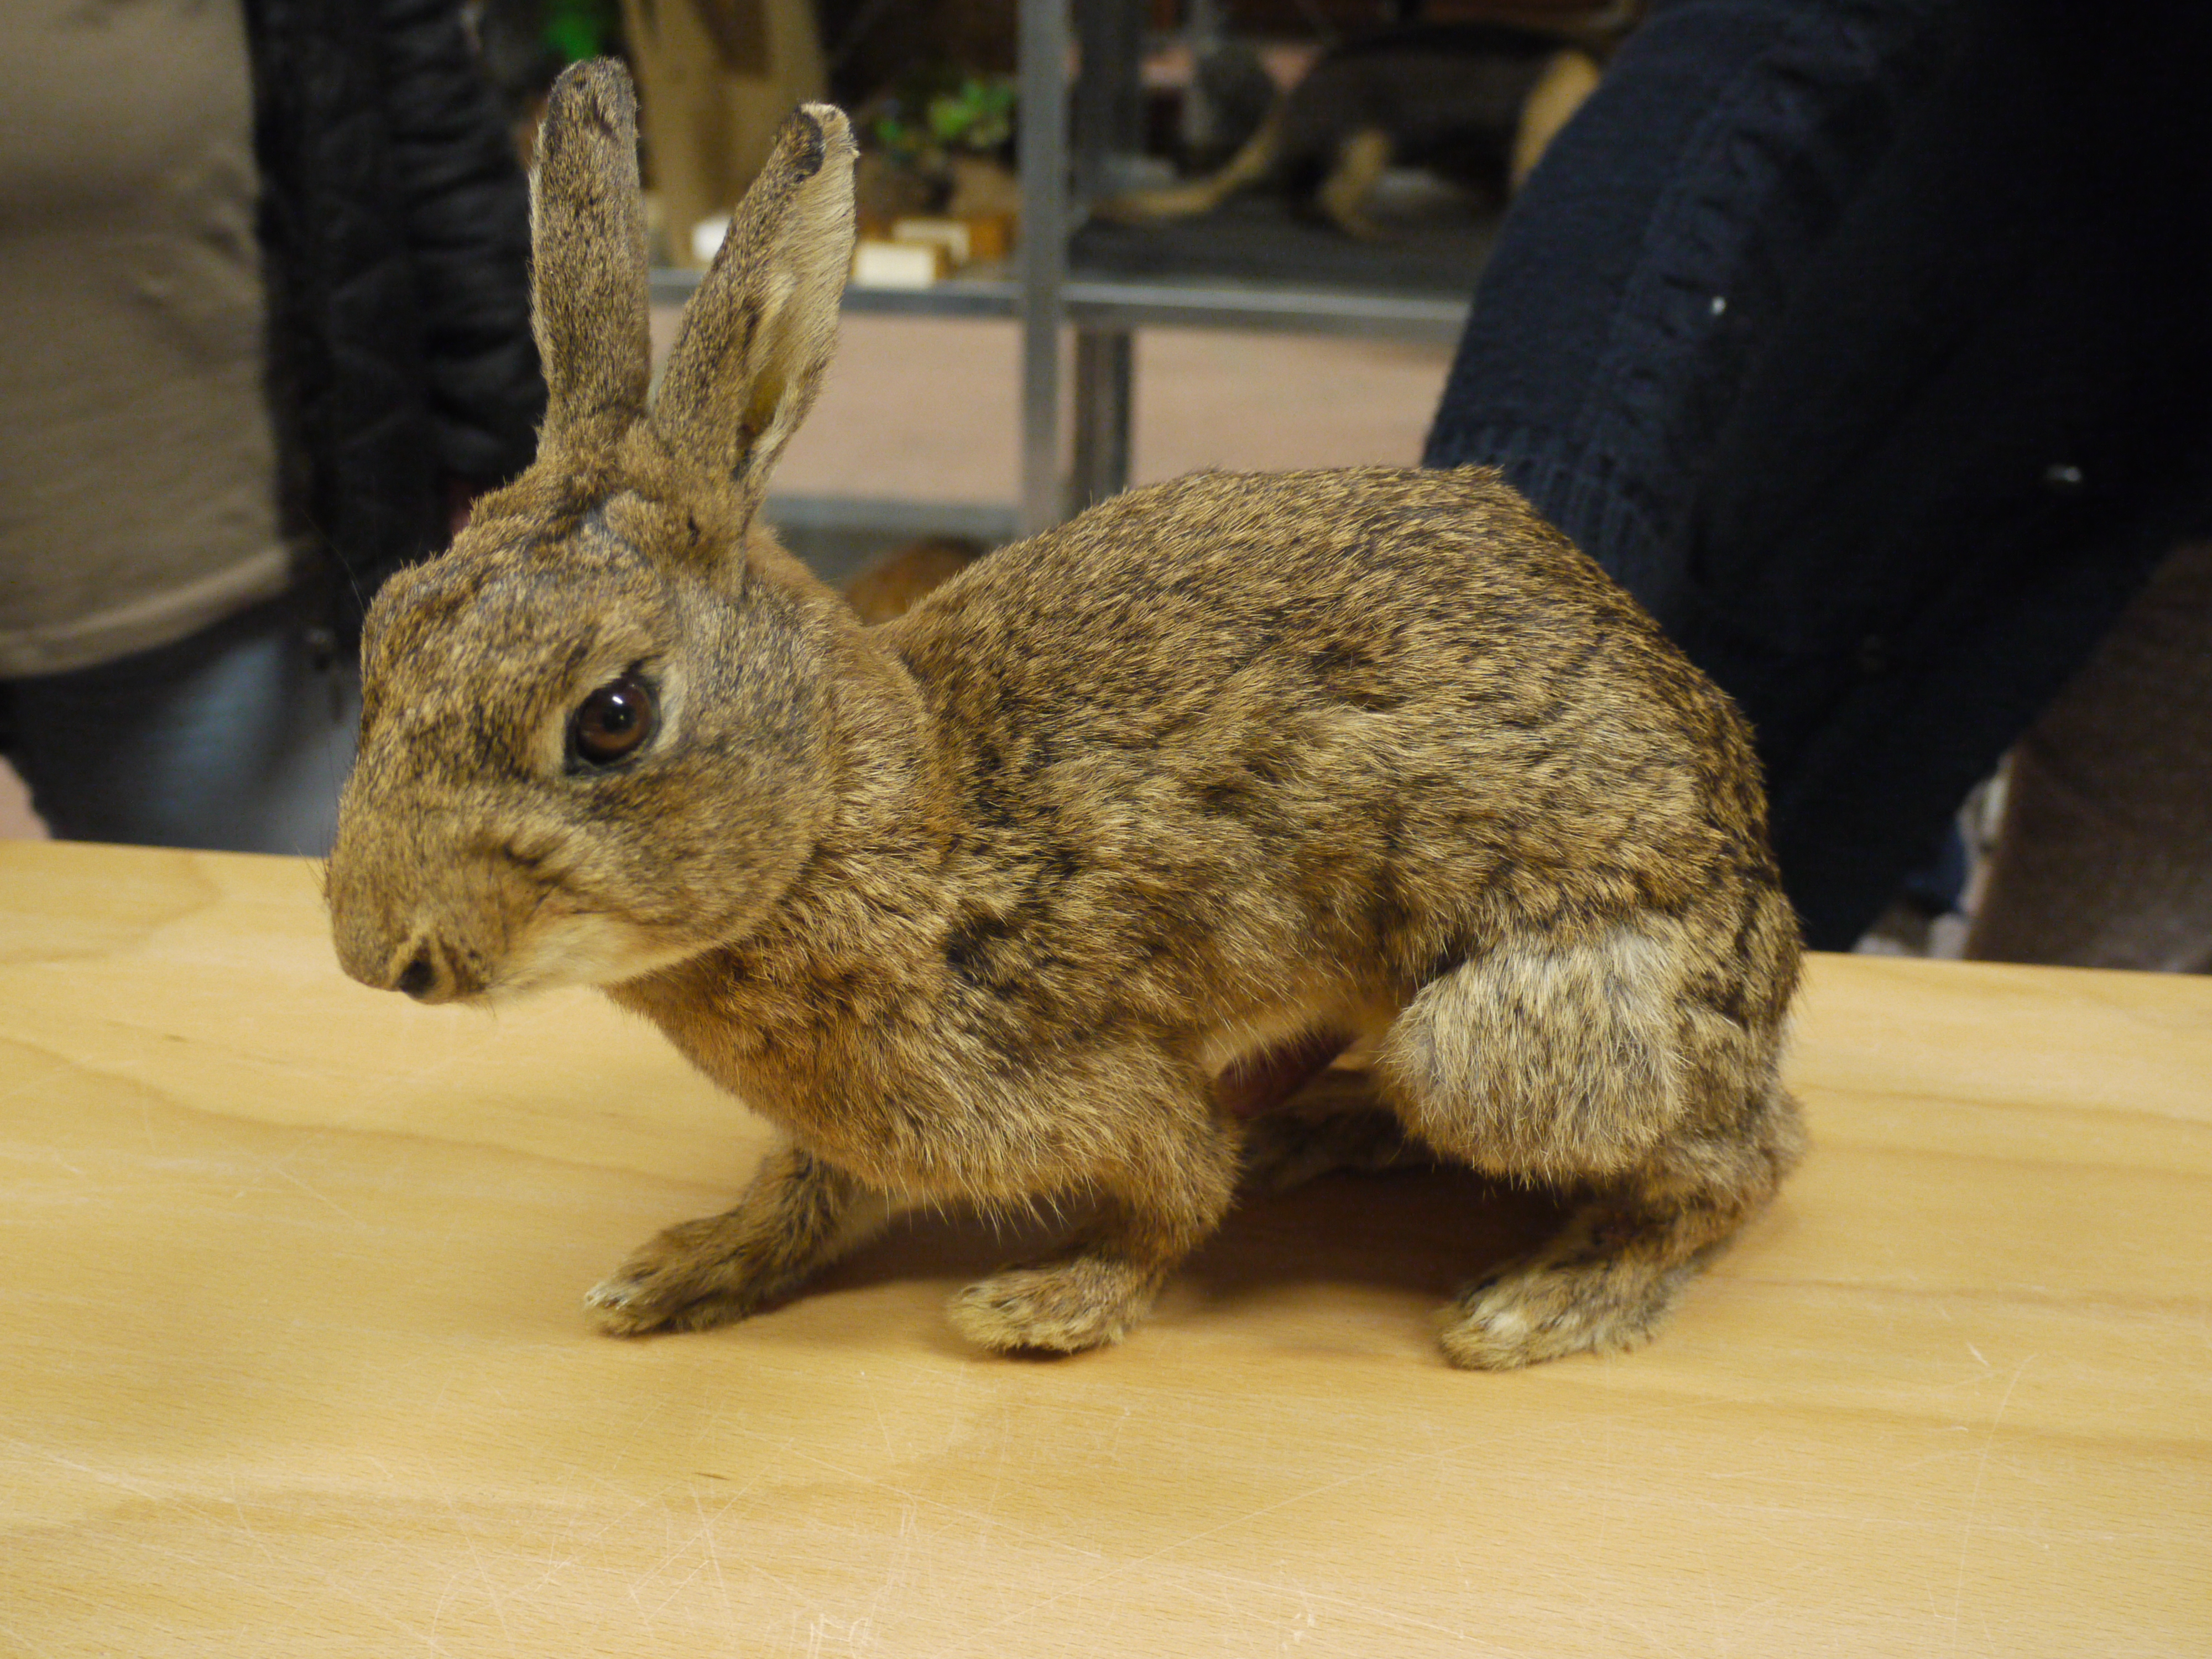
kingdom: Animalia
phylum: Chordata
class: Mammalia
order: Lagomorpha
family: Leporidae
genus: Lepus
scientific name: Lepus europaeus
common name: European hare
